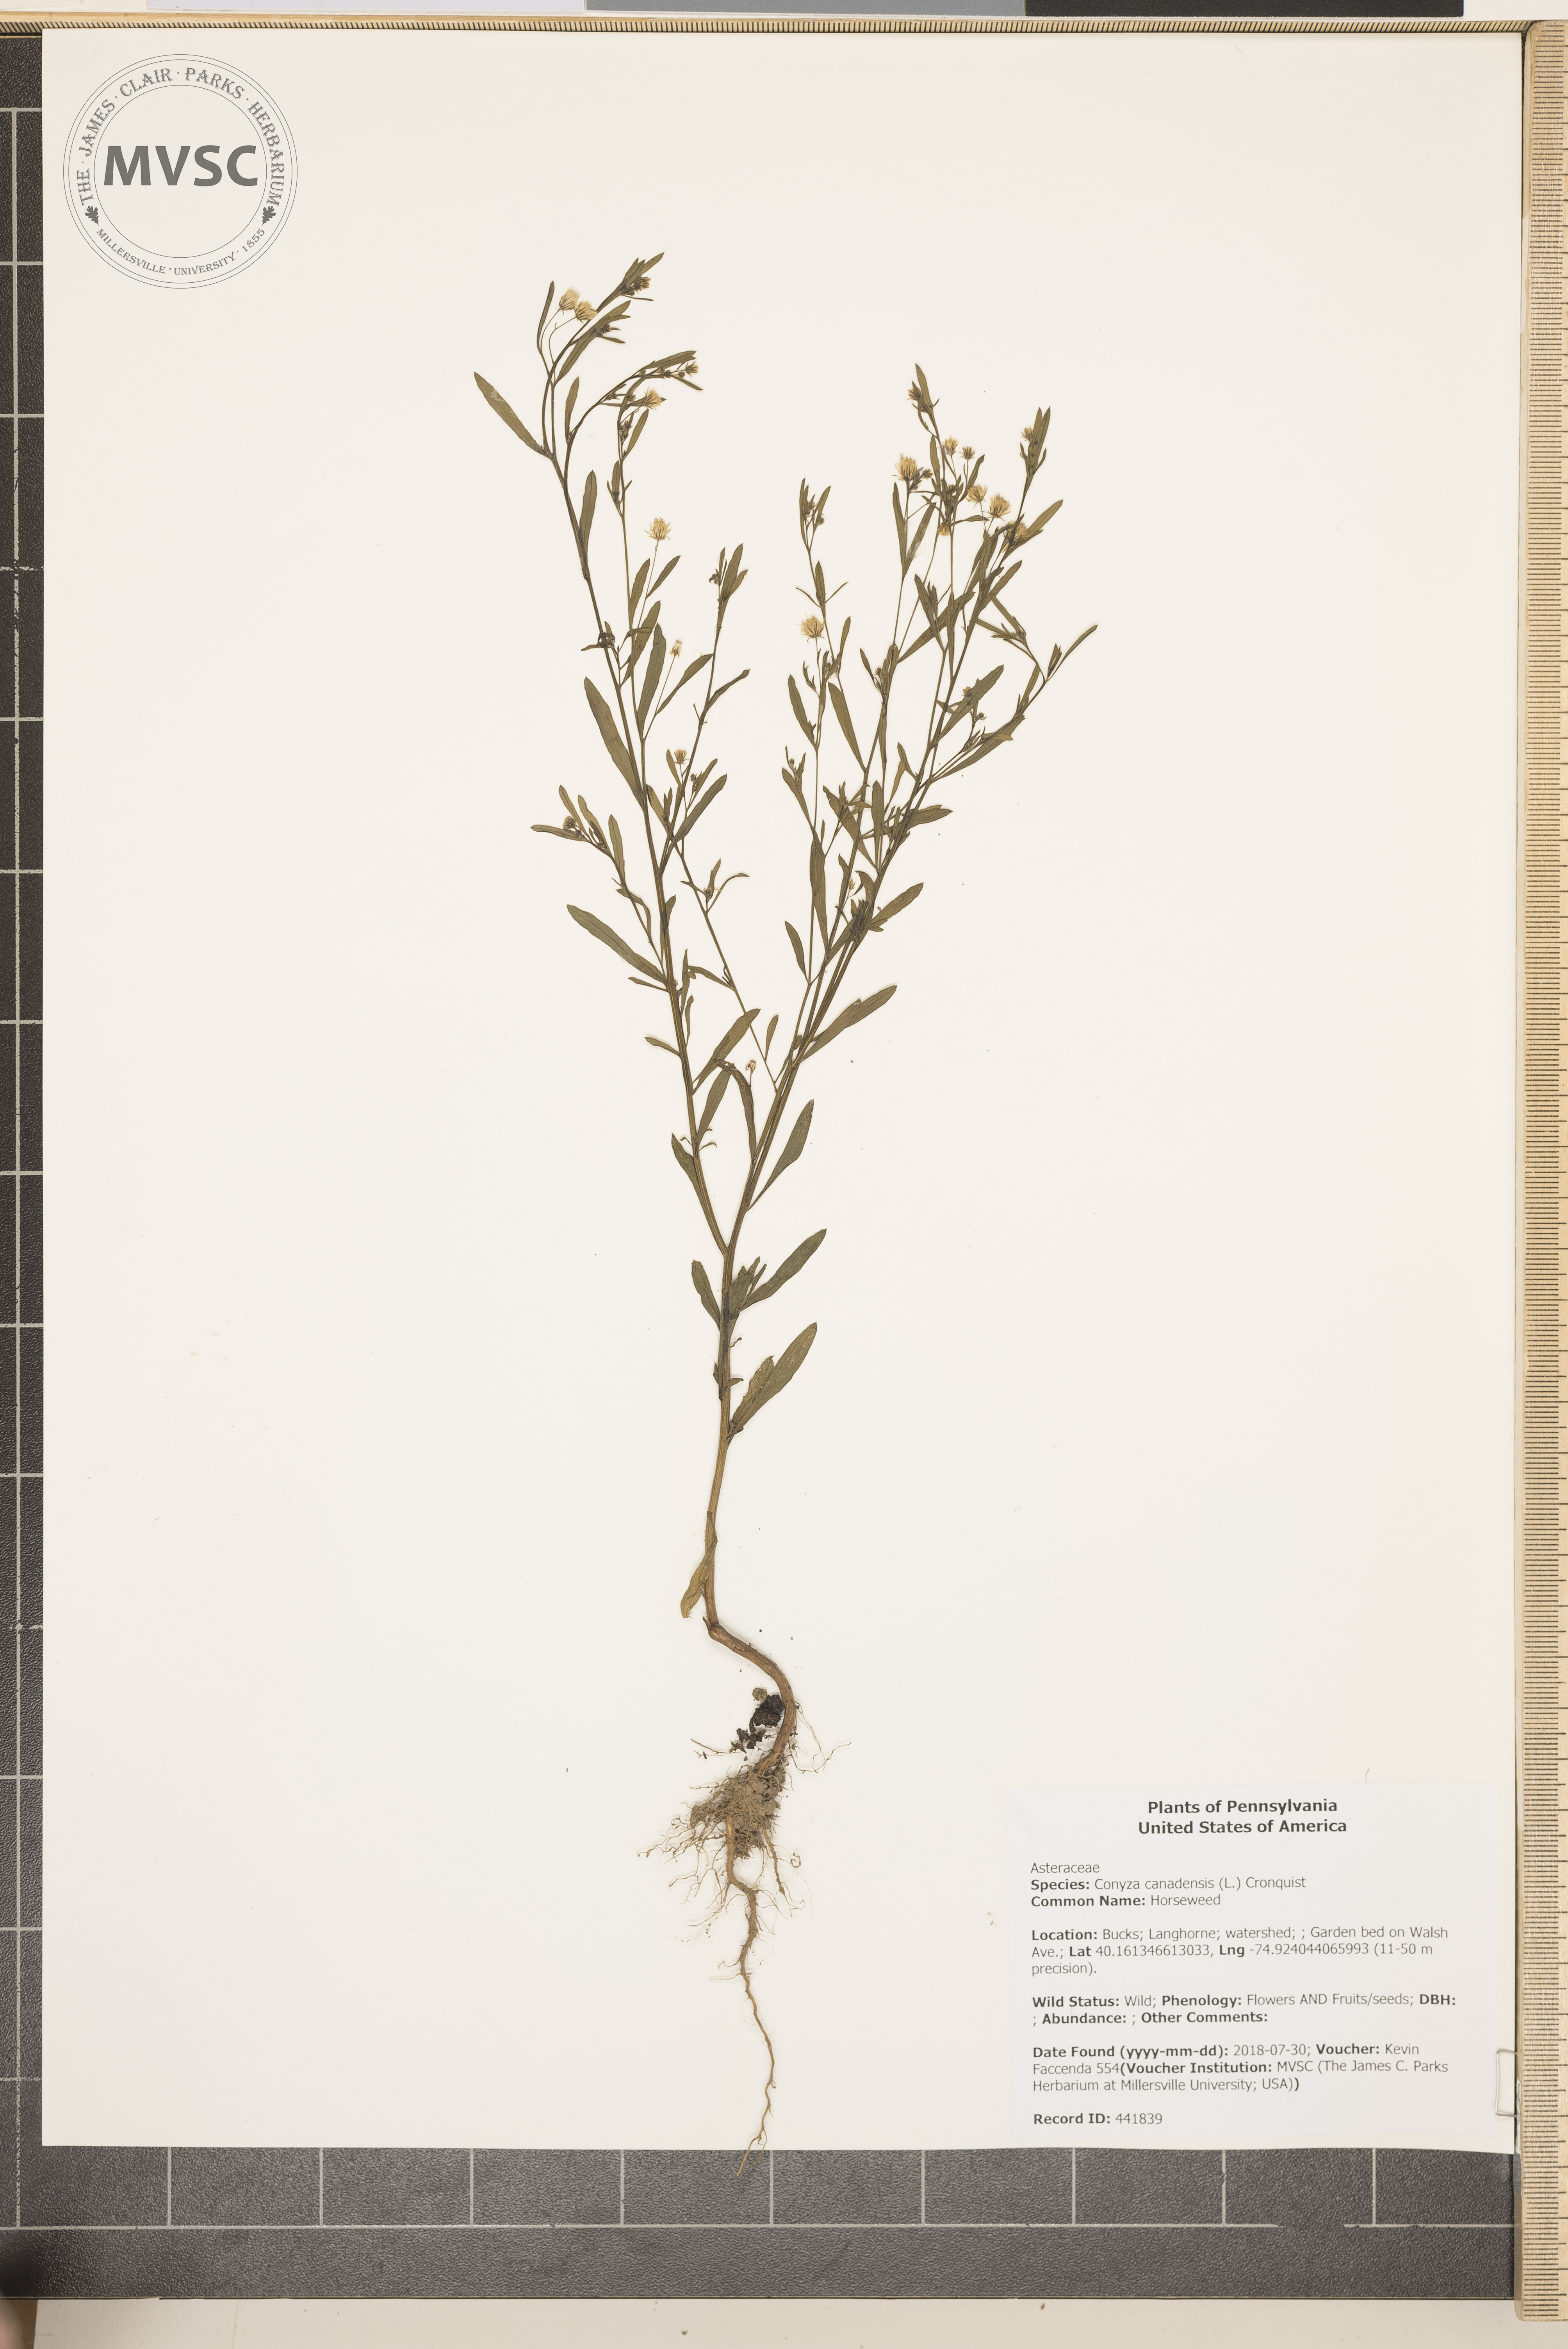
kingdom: Plantae
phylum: Tracheophyta
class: Magnoliopsida
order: Asterales
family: Asteraceae
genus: Erigeron
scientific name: Erigeron canadensis
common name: Horseweed
